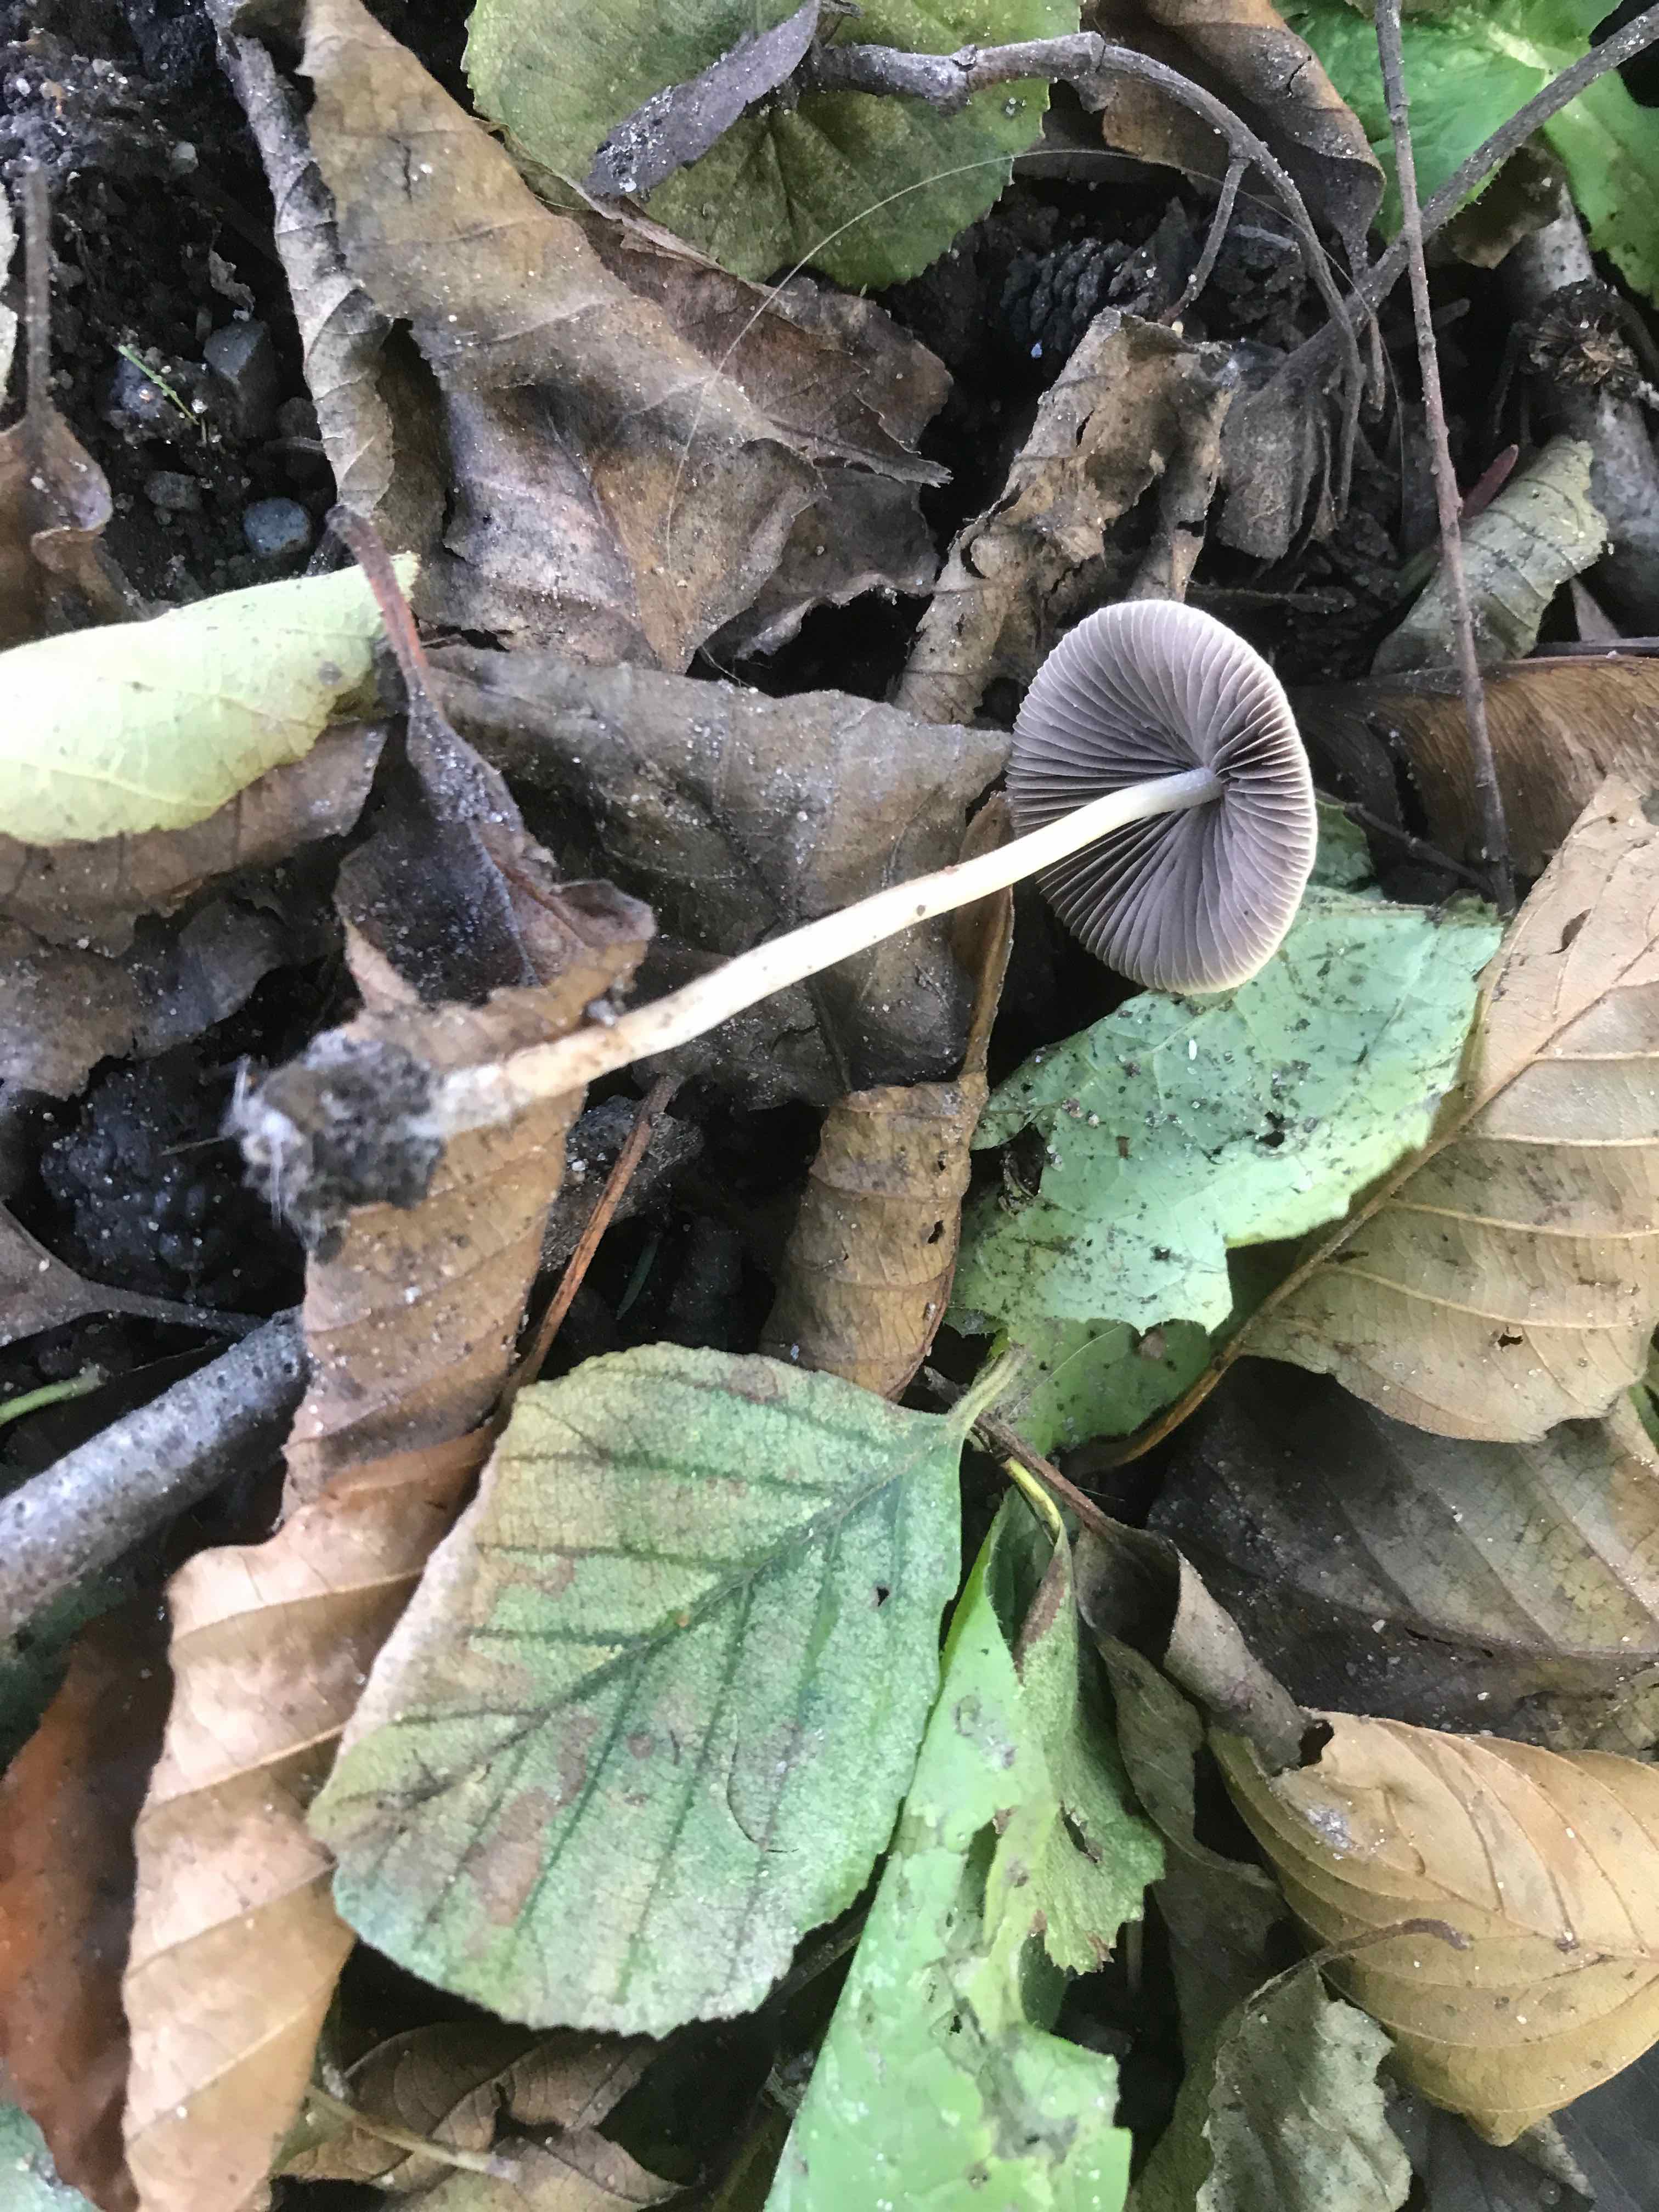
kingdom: Fungi
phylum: Basidiomycota
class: Agaricomycetes
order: Agaricales
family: Psathyrellaceae
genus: Psathyrella
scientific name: Psathyrella
